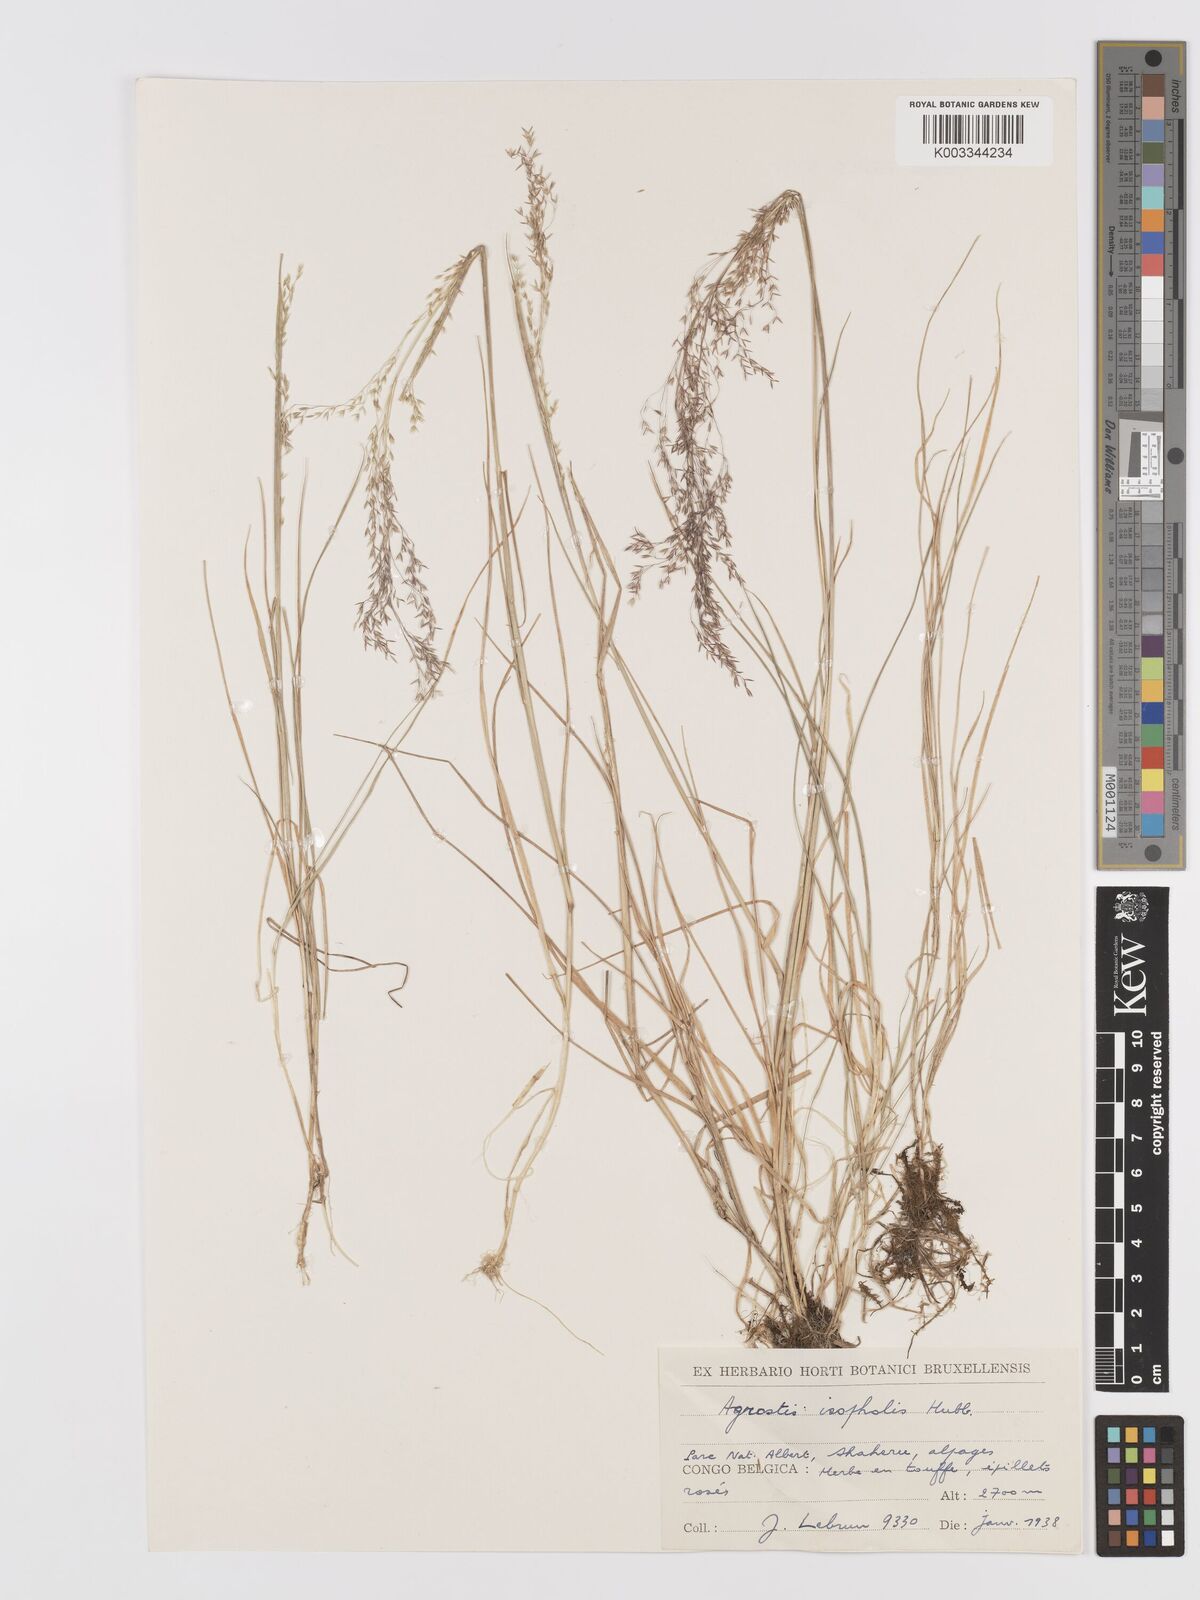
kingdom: Plantae
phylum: Tracheophyta
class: Liliopsida
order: Poales
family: Poaceae
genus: Agrostis
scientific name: Agrostis isopholis
